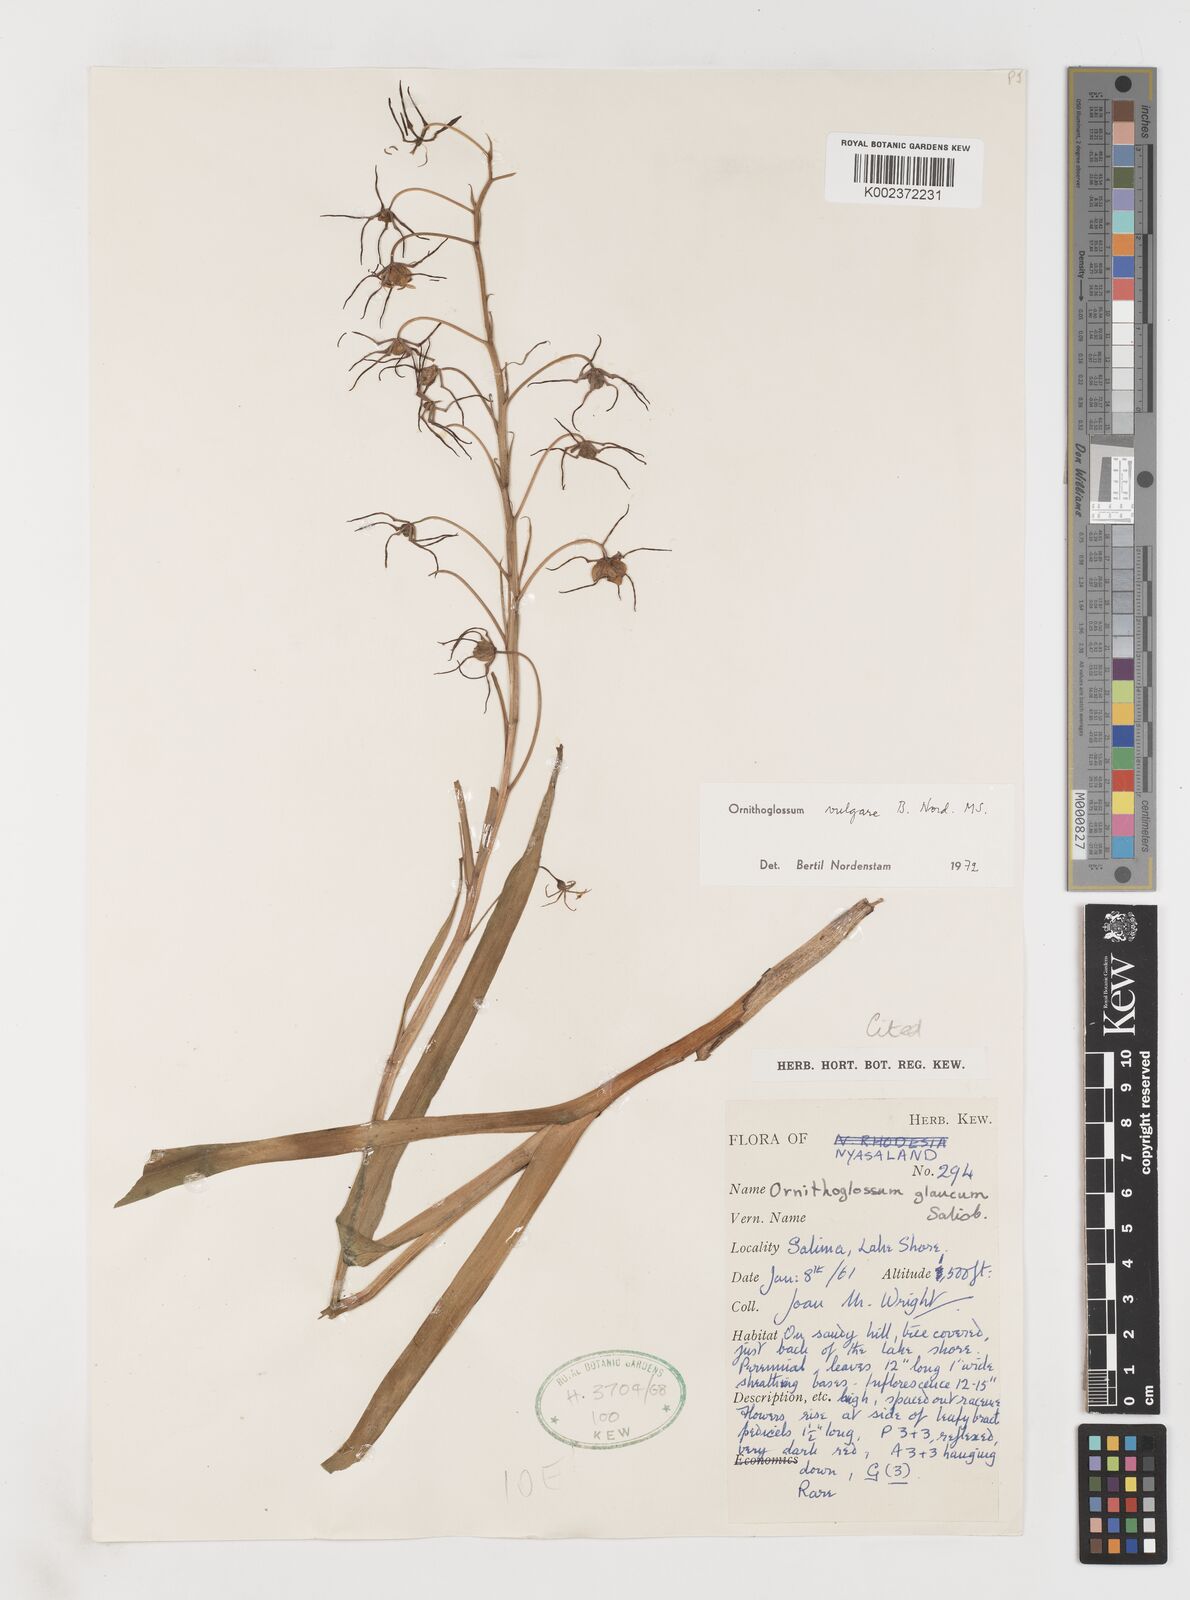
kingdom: Plantae
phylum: Tracheophyta
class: Liliopsida
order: Liliales
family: Colchicaceae
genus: Ornithoglossum
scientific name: Ornithoglossum vulgare
